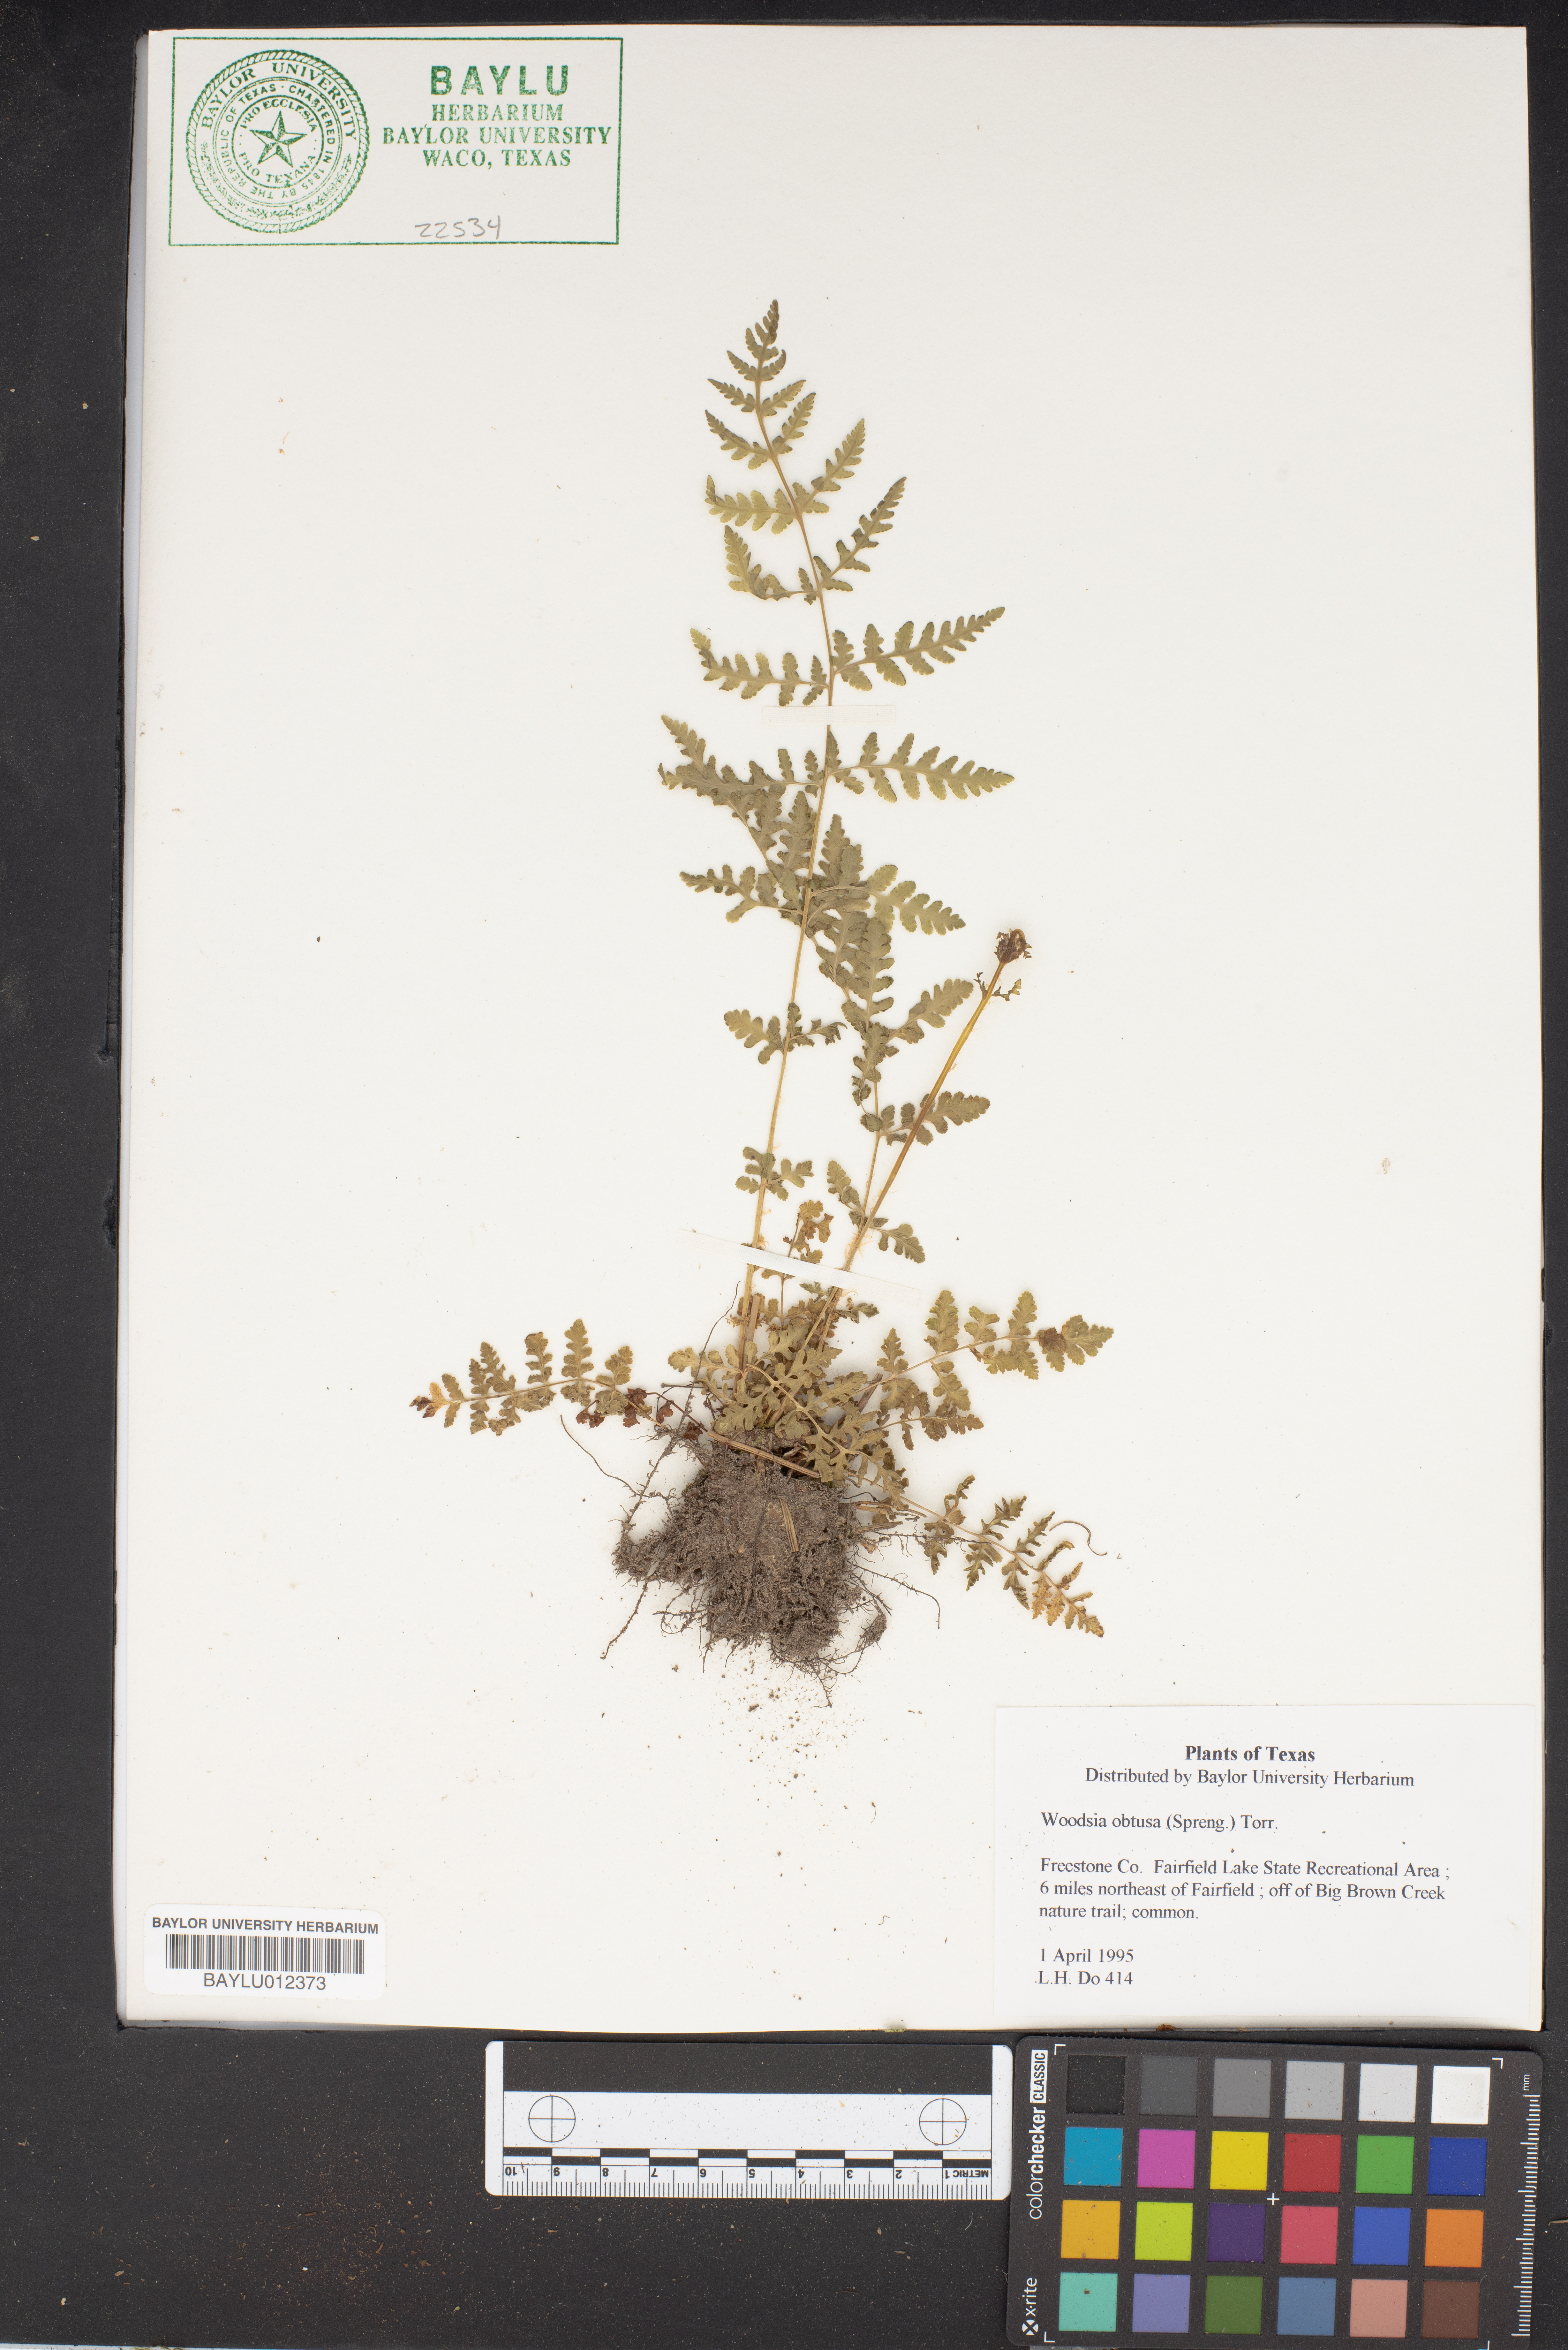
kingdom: Plantae
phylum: Tracheophyta
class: Polypodiopsida
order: Polypodiales
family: Woodsiaceae
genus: Physematium
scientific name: Physematium obtusum
